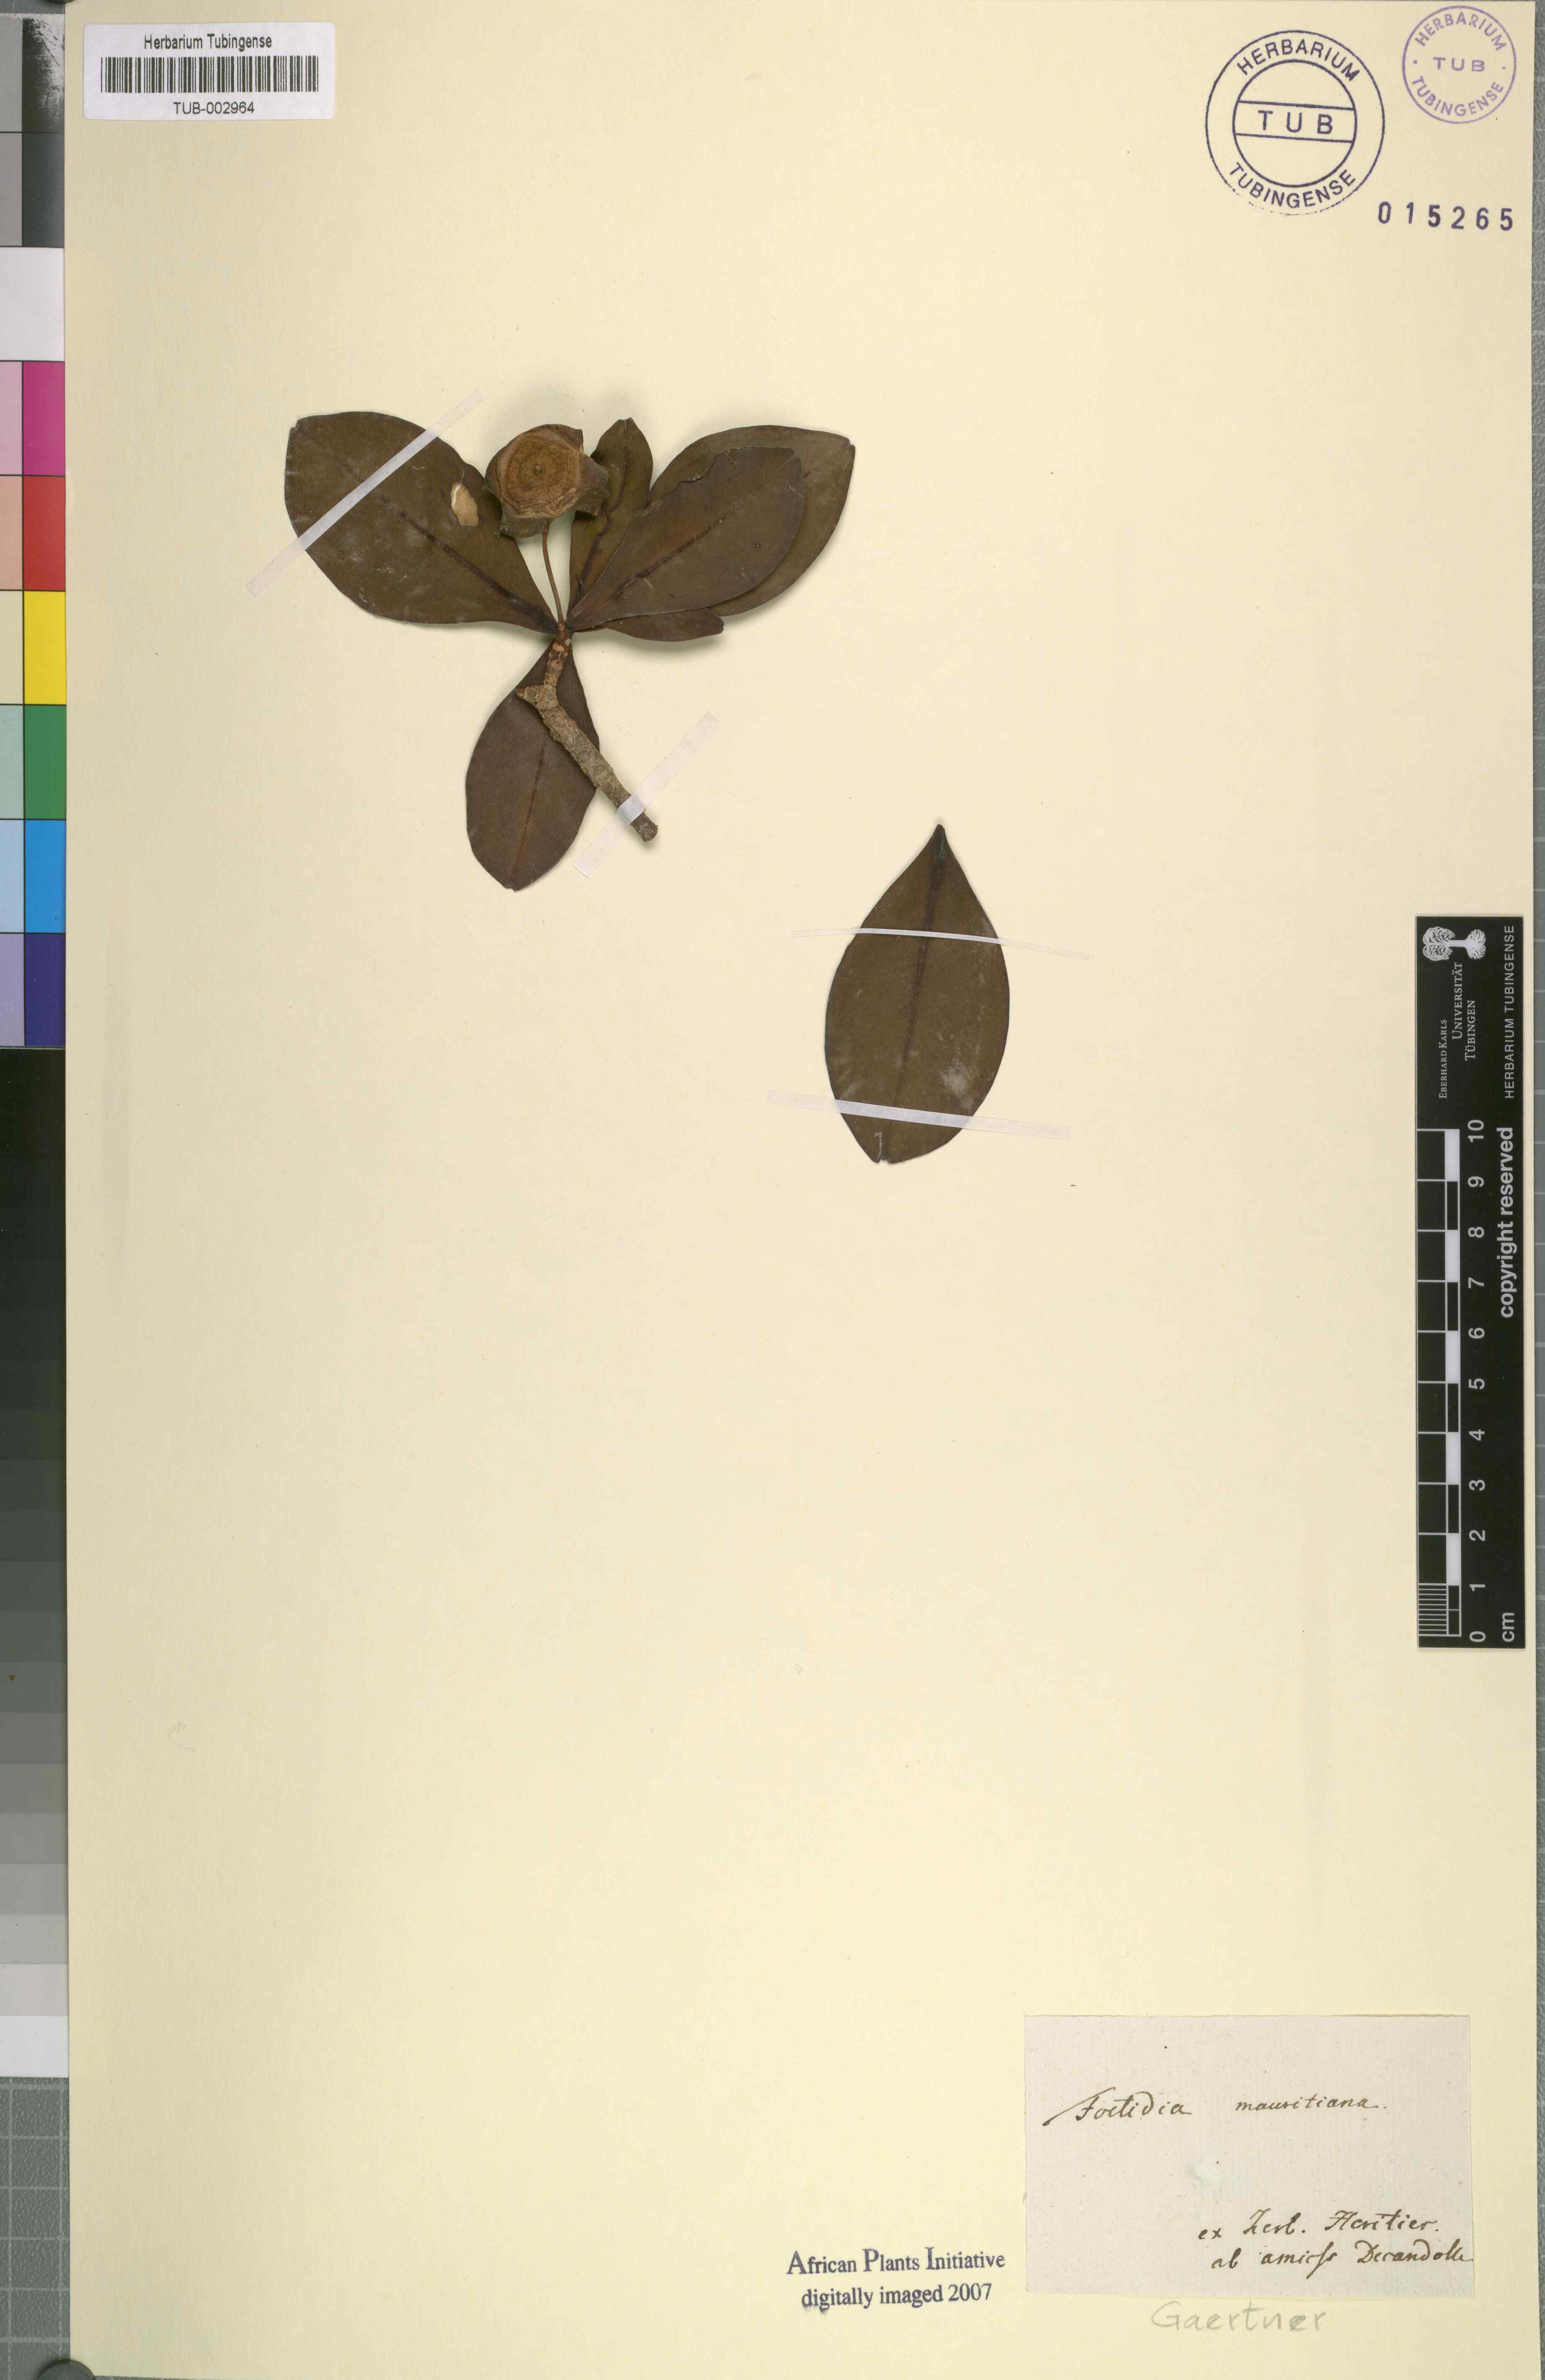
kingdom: Plantae
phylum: Tracheophyta
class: Magnoliopsida
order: Ericales
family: Lecythidaceae
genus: Foetidia
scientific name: Foetidia mauritiana
